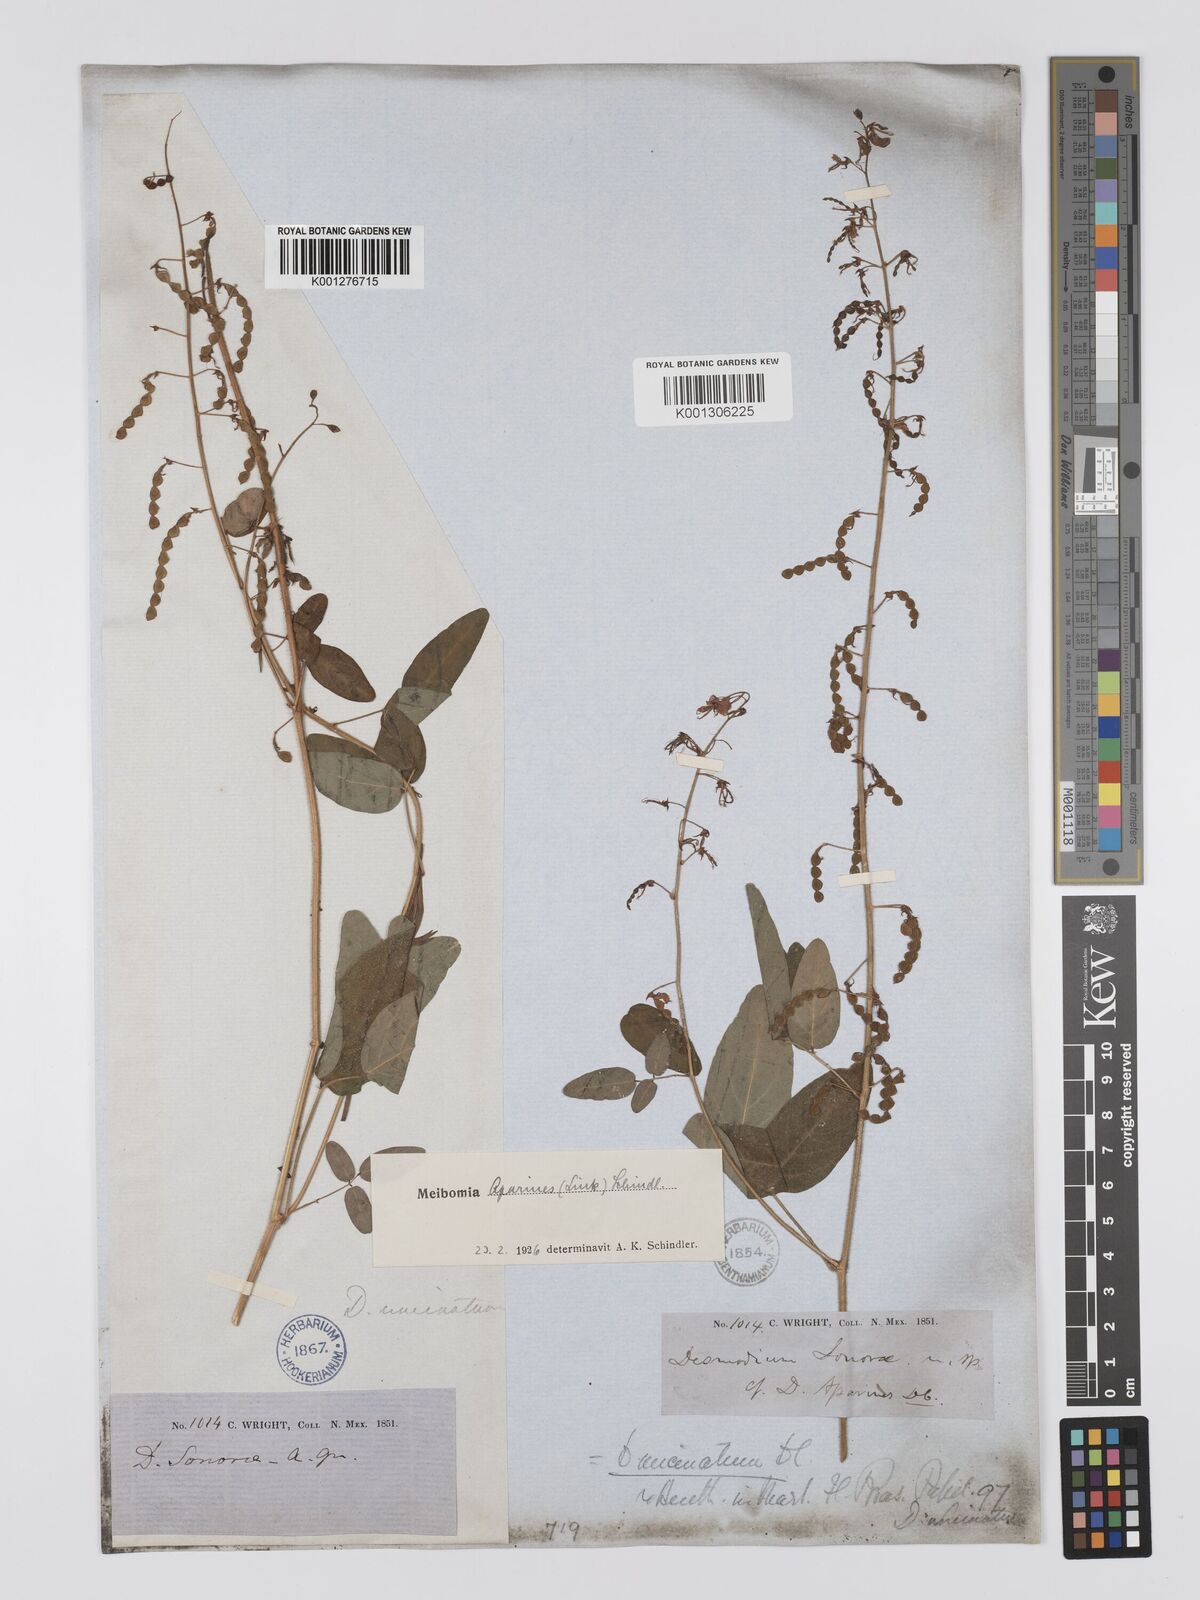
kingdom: Plantae
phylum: Tracheophyta
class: Magnoliopsida
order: Fabales
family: Fabaceae
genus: Desmodium
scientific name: Desmodium uncinatum
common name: Silverleaf desmodium
